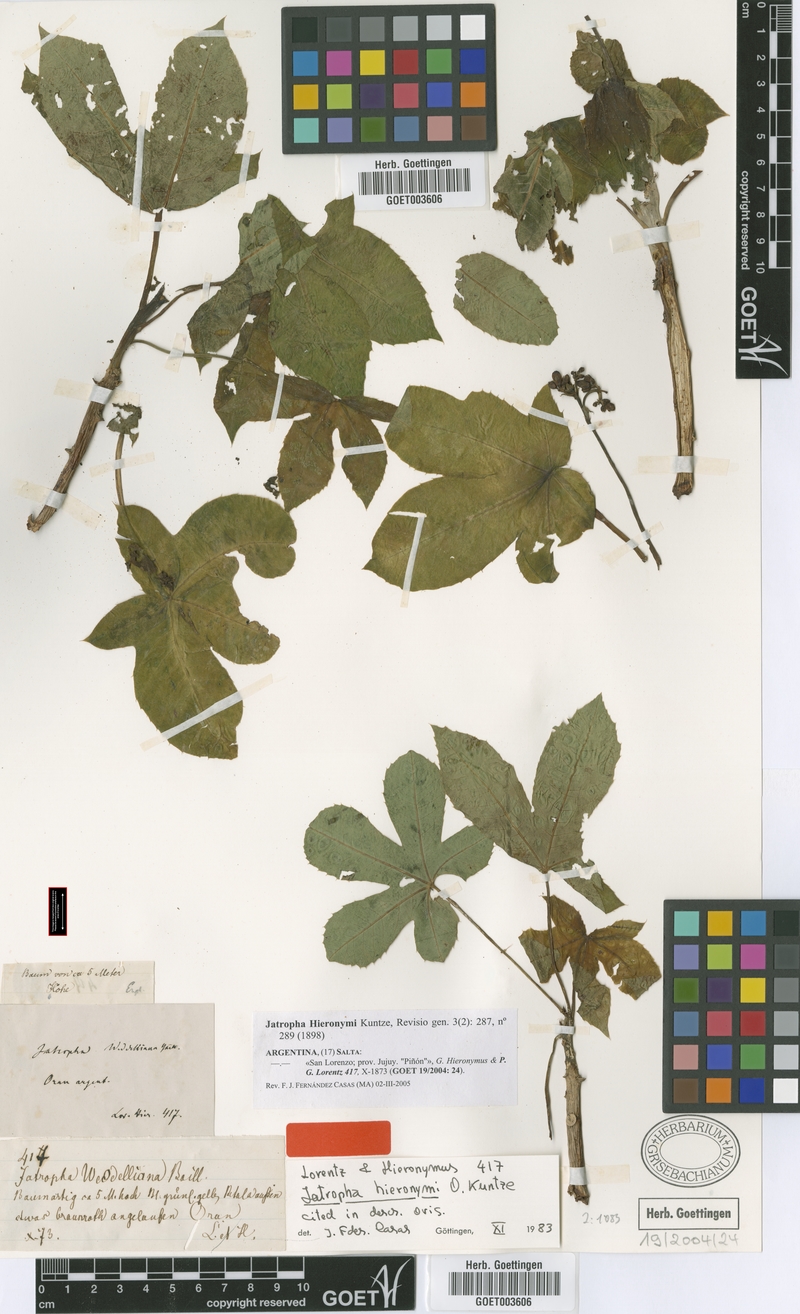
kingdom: Plantae
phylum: Tracheophyta
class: Magnoliopsida
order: Malpighiales
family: Euphorbiaceae
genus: Jatropha
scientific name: Jatropha hieronymi
